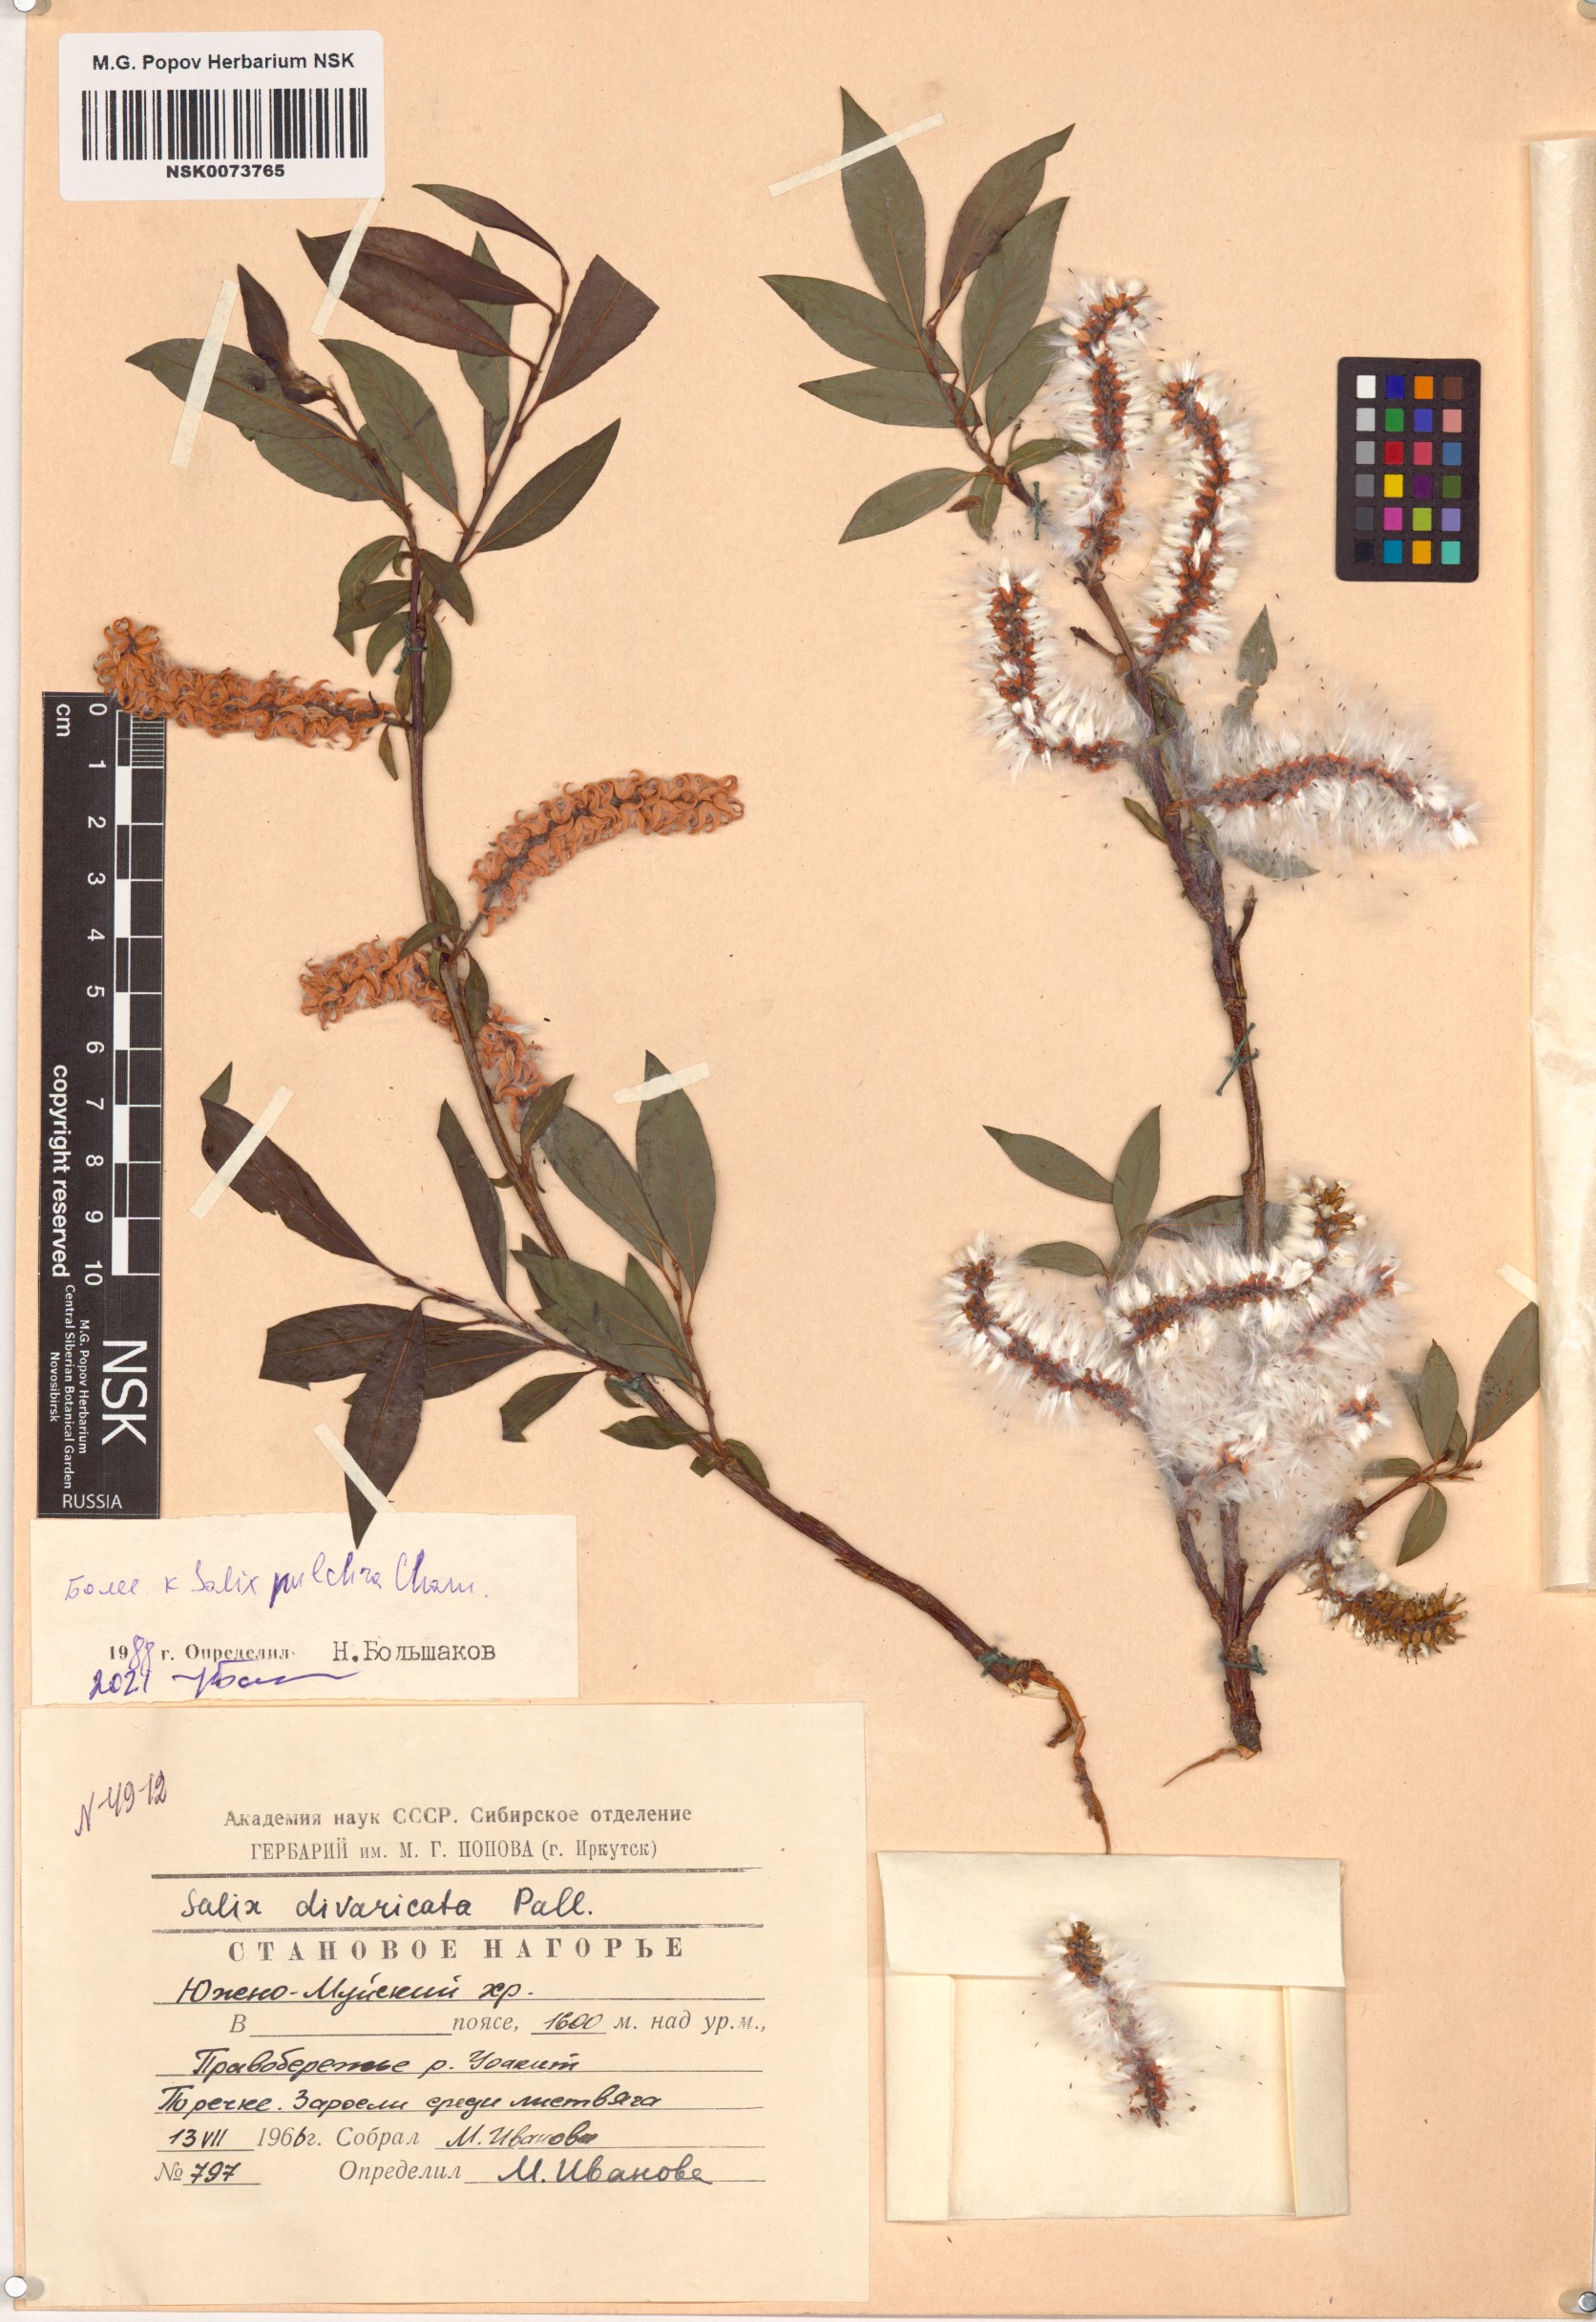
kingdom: Plantae
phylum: Tracheophyta
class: Magnoliopsida
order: Malpighiales
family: Salicaceae
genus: Salix
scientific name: Salix pulchra
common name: Diamond-leaved willow
